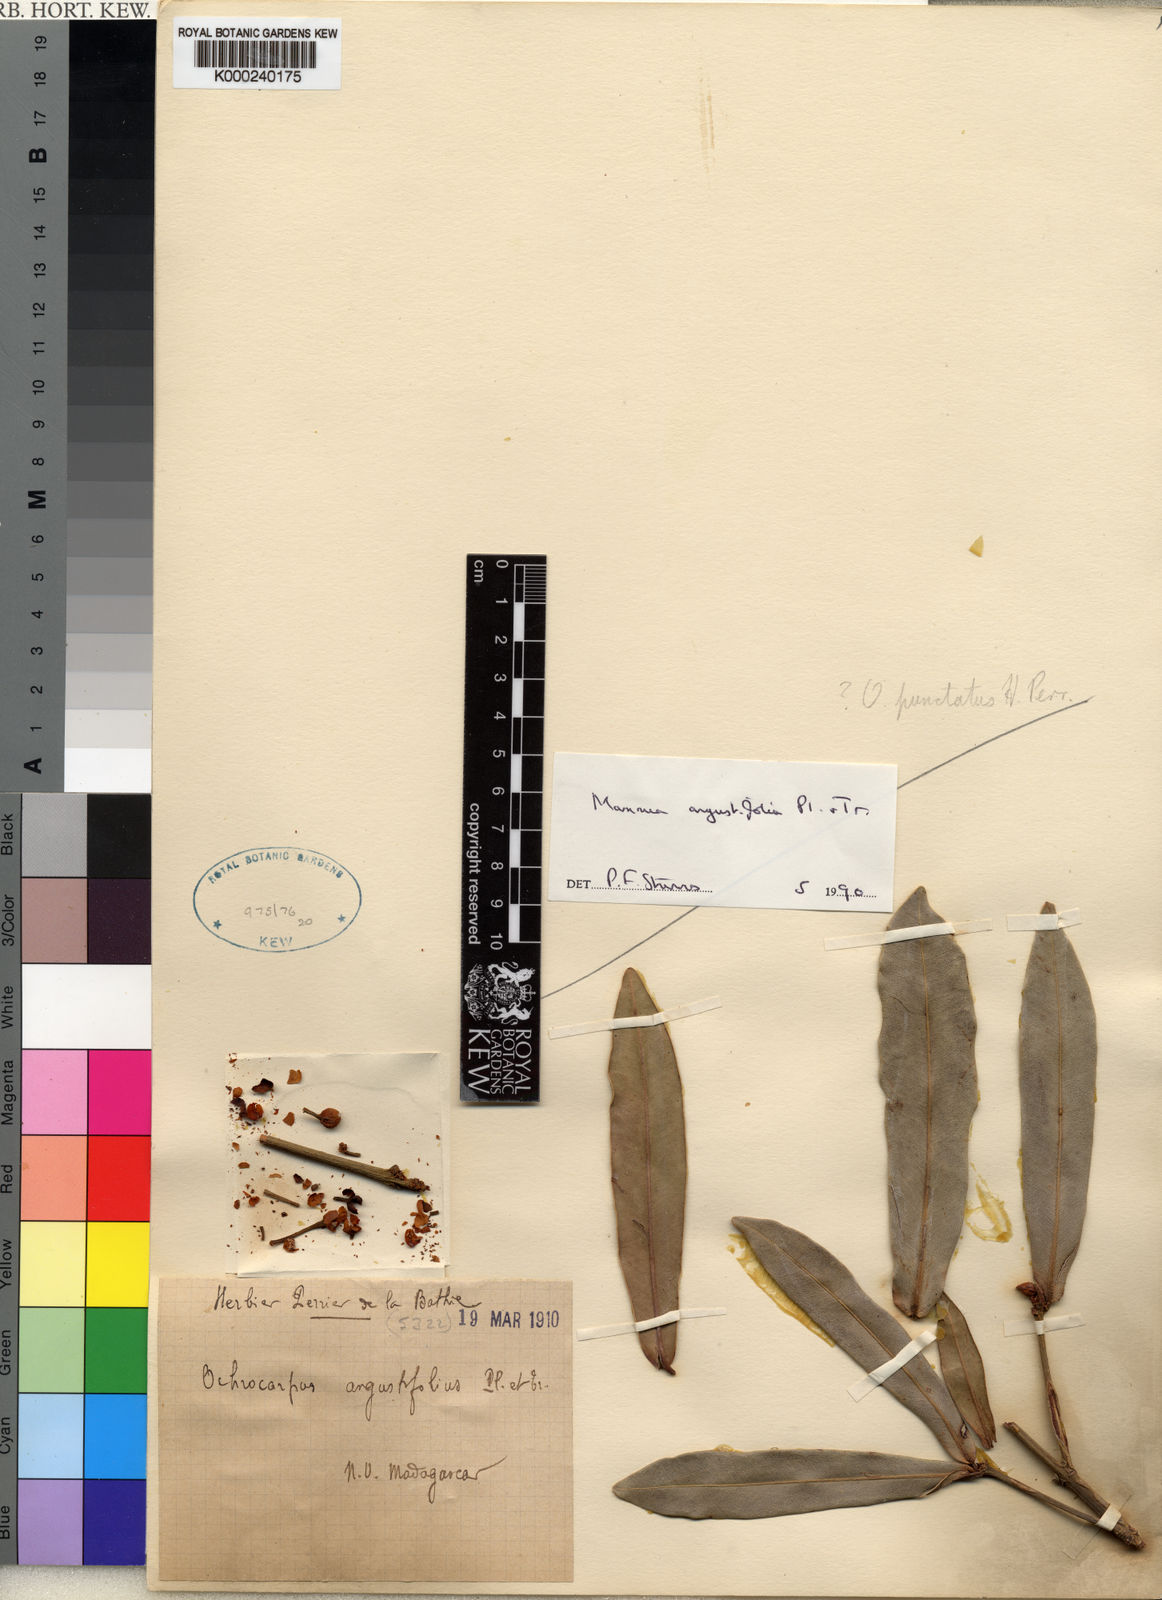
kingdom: Plantae
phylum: Tracheophyta
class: Magnoliopsida
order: Malpighiales
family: Calophyllaceae
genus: Mammea
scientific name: Mammea angustifolia
